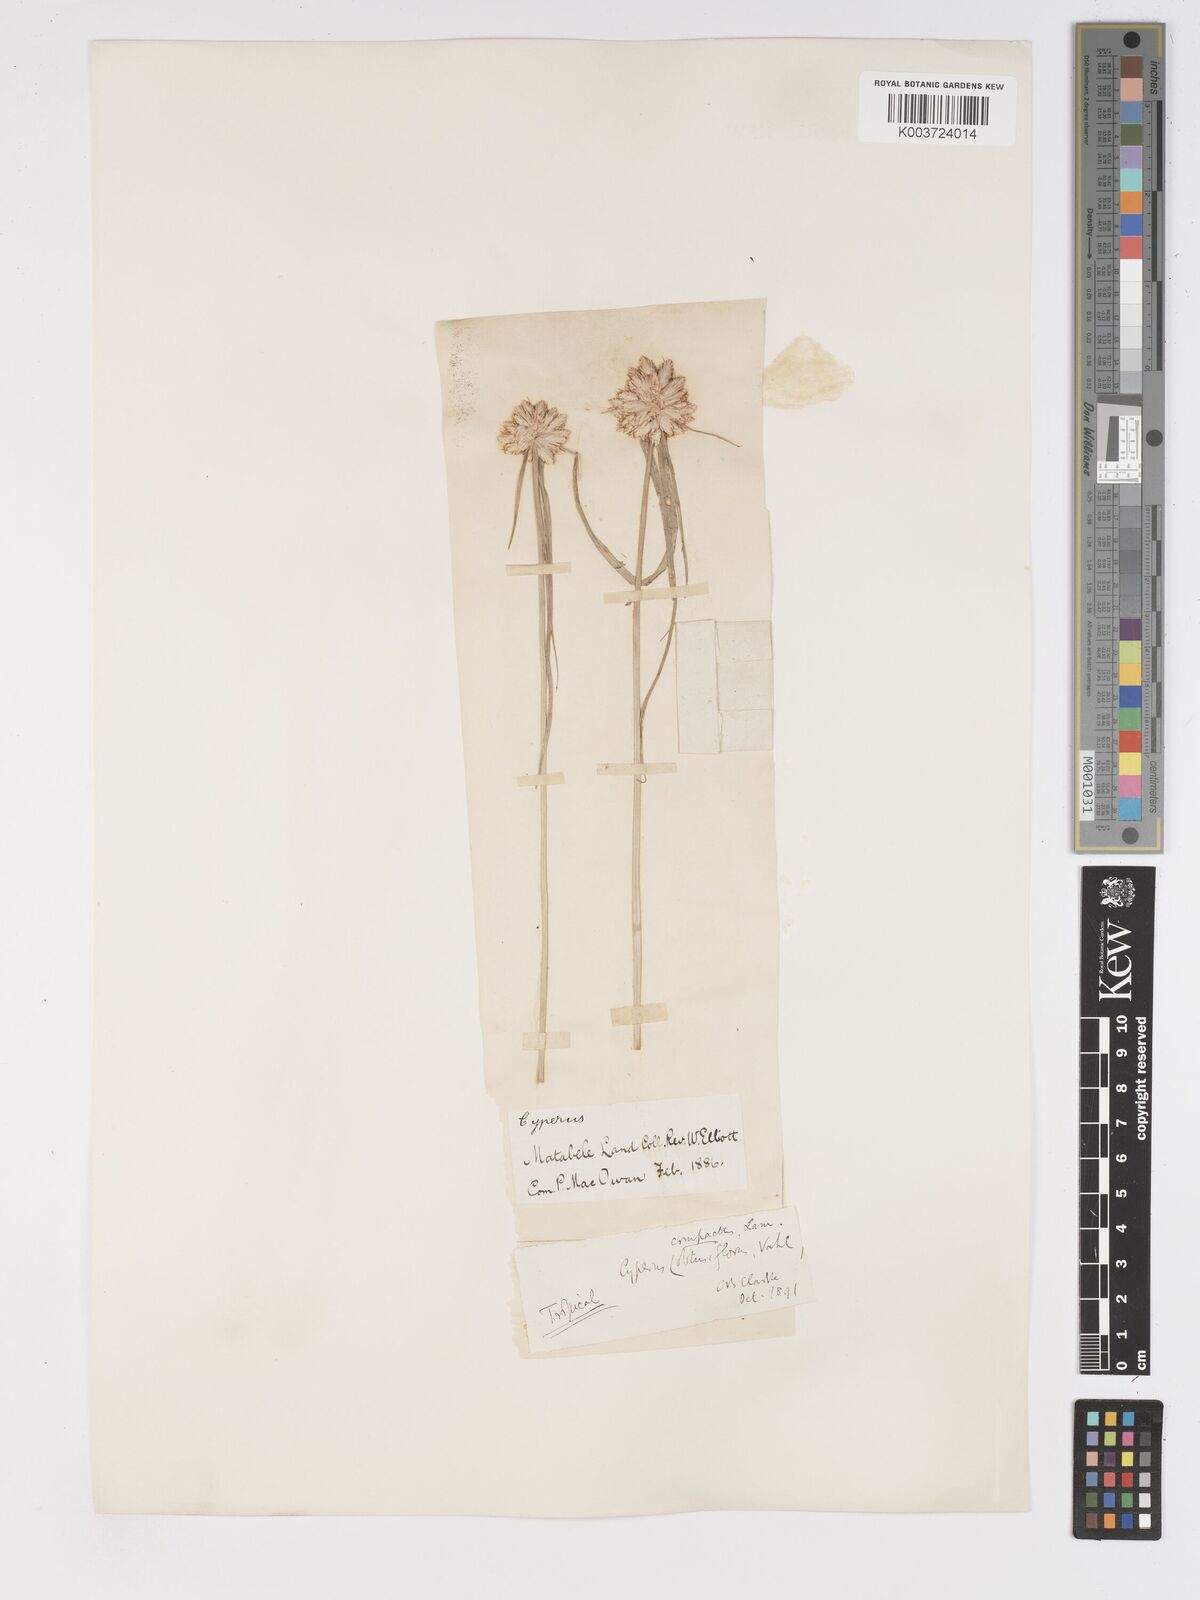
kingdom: Plantae
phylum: Tracheophyta
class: Liliopsida
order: Poales
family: Cyperaceae
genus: Cyperus
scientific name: Cyperus niveus
